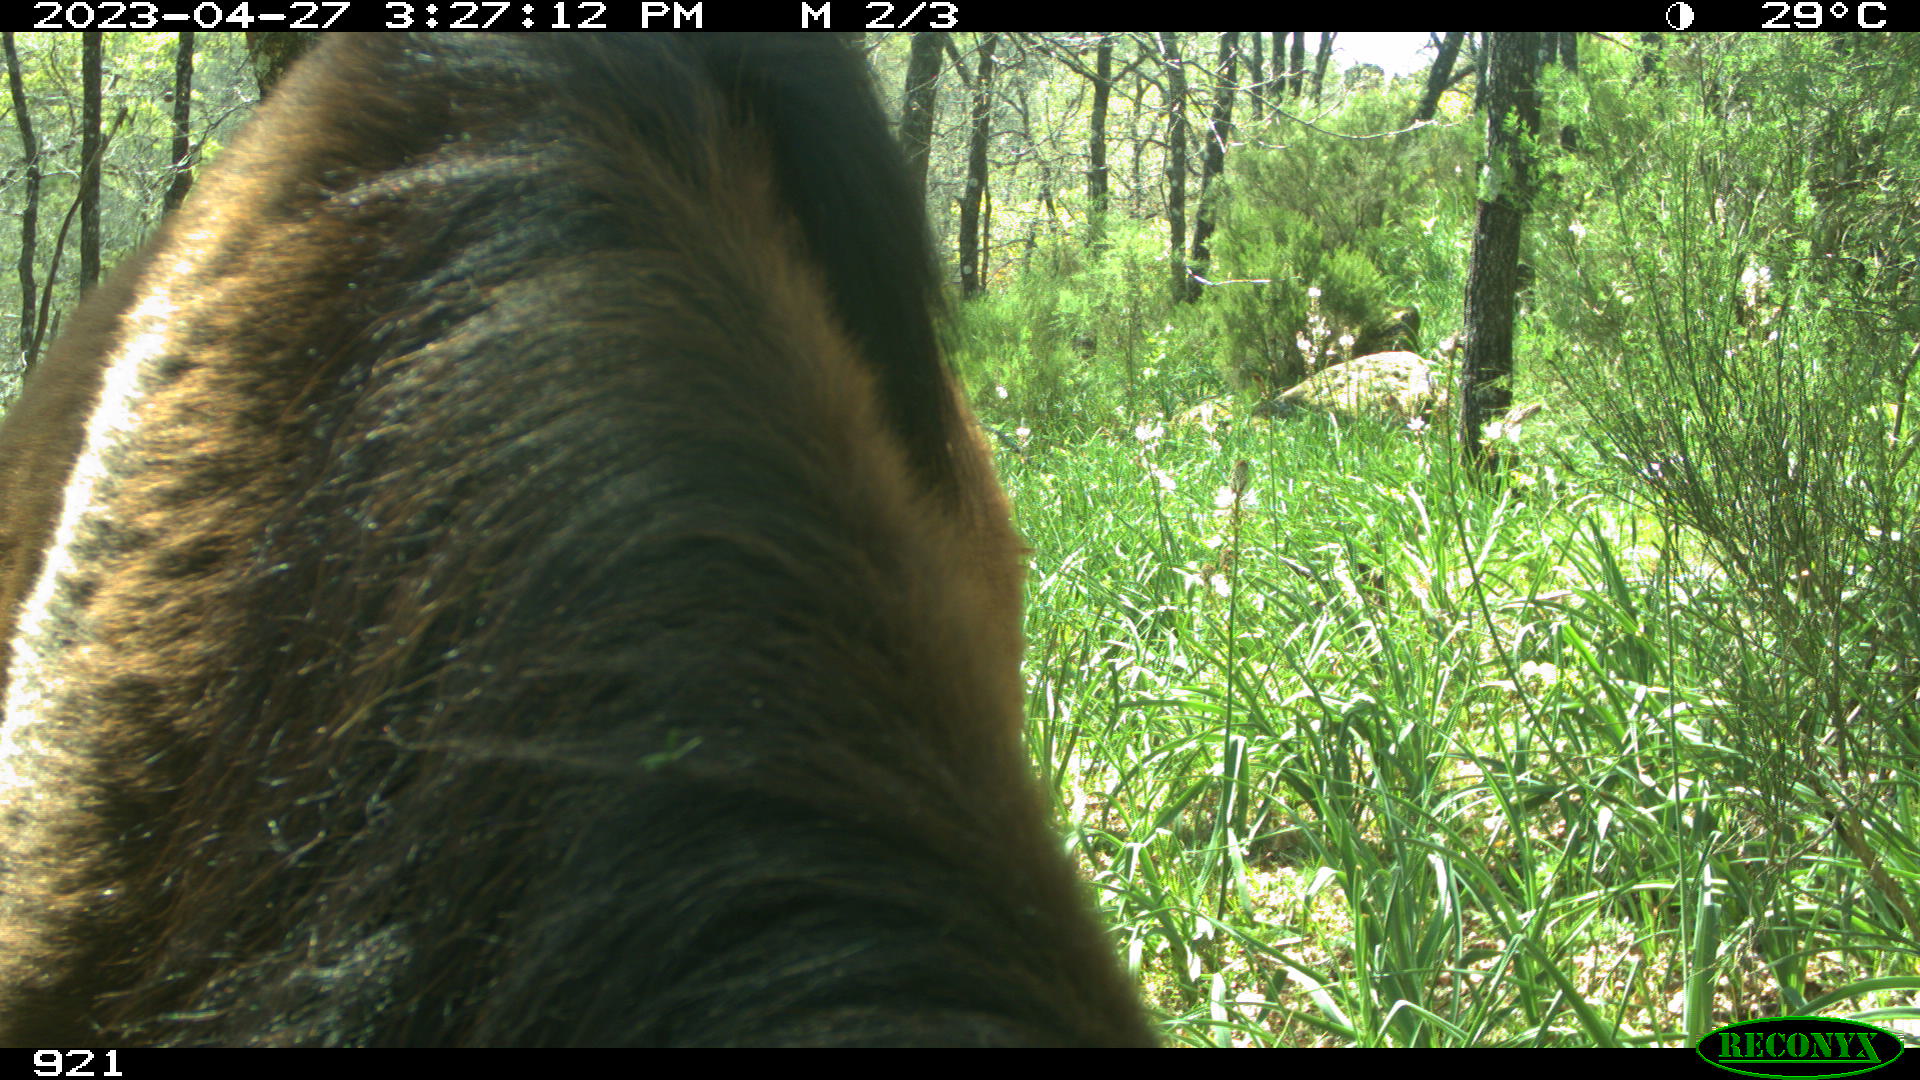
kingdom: Animalia
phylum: Chordata
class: Mammalia
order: Perissodactyla
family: Equidae
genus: Equus
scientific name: Equus caballus
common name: Horse
